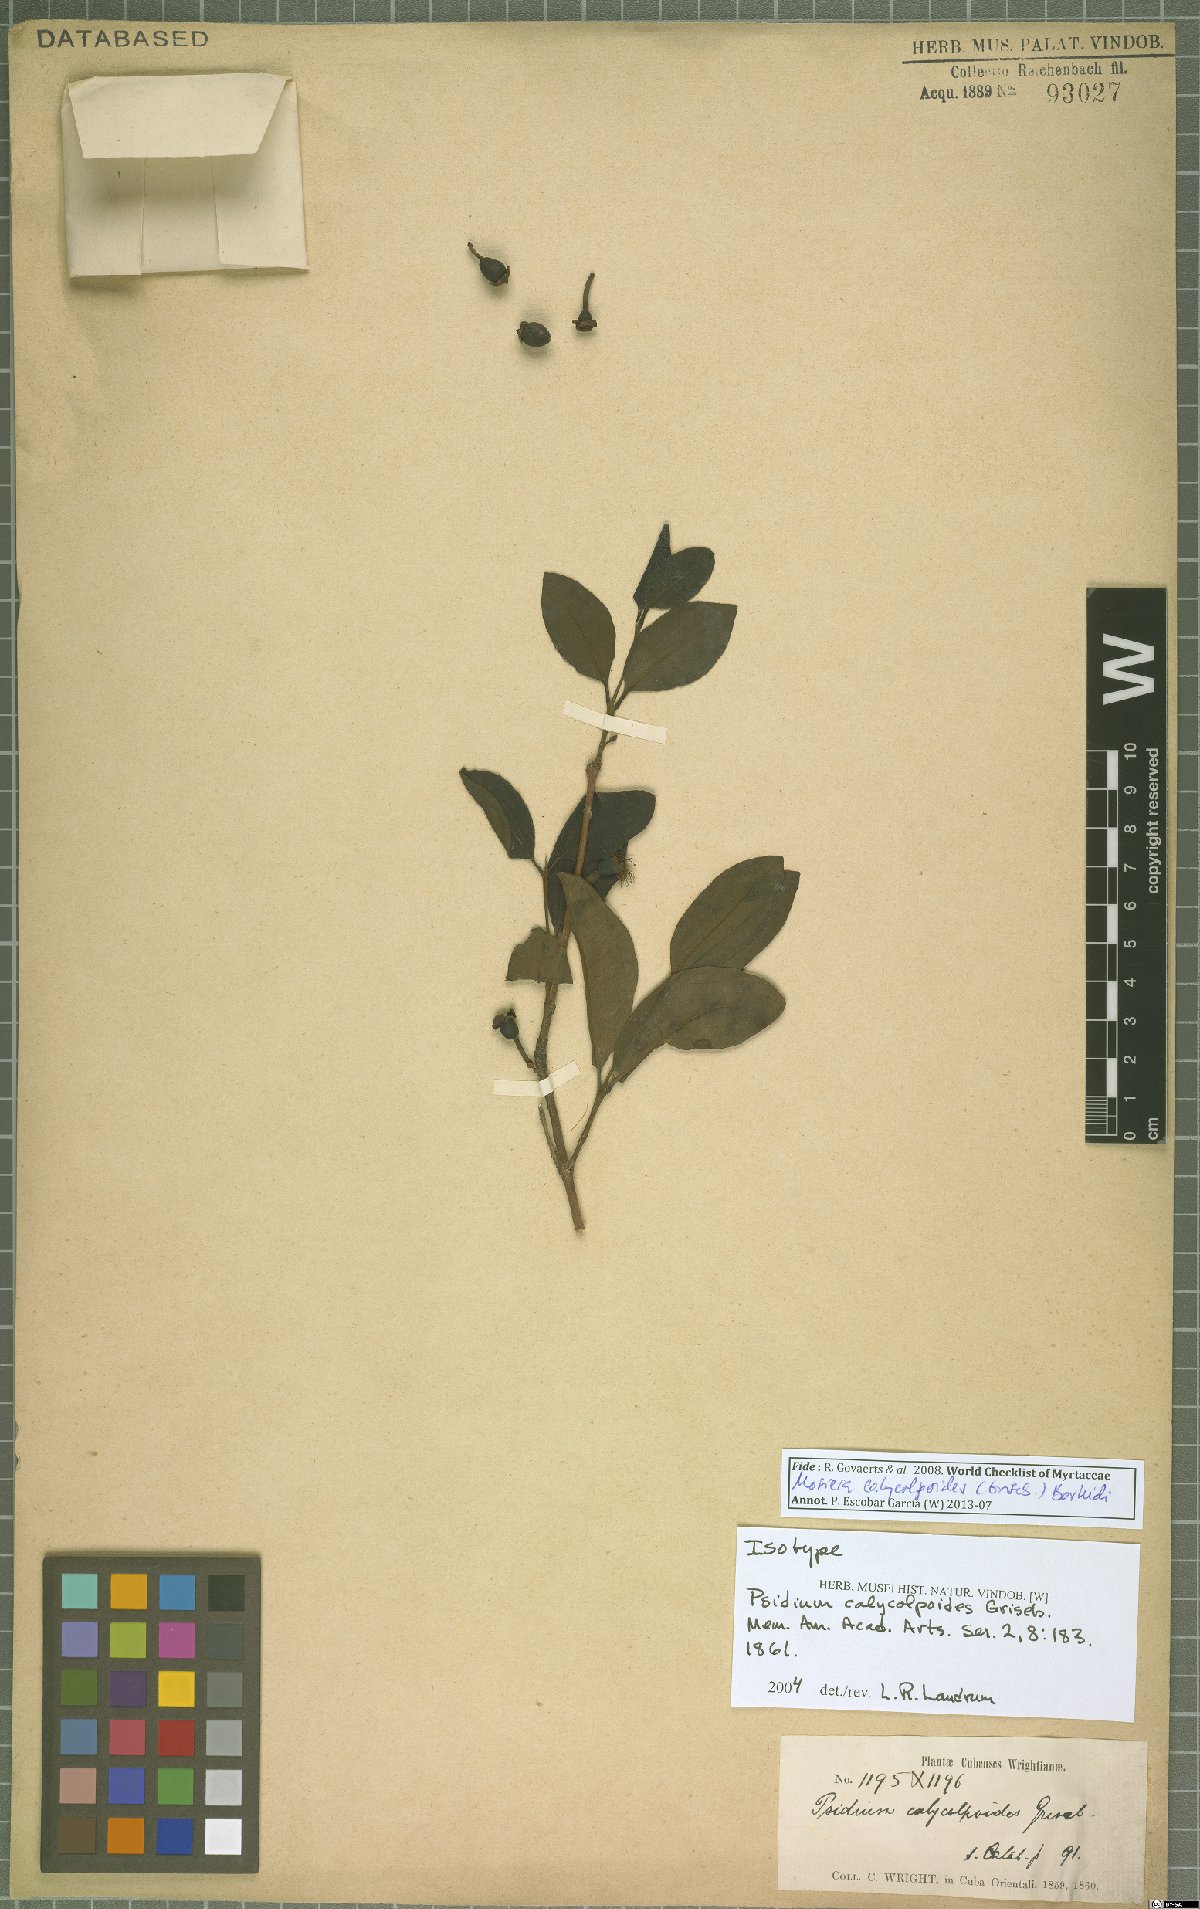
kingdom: Plantae
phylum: Tracheophyta
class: Magnoliopsida
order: Myrtales
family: Myrtaceae
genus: Mosiera
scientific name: Mosiera calycolpoides
